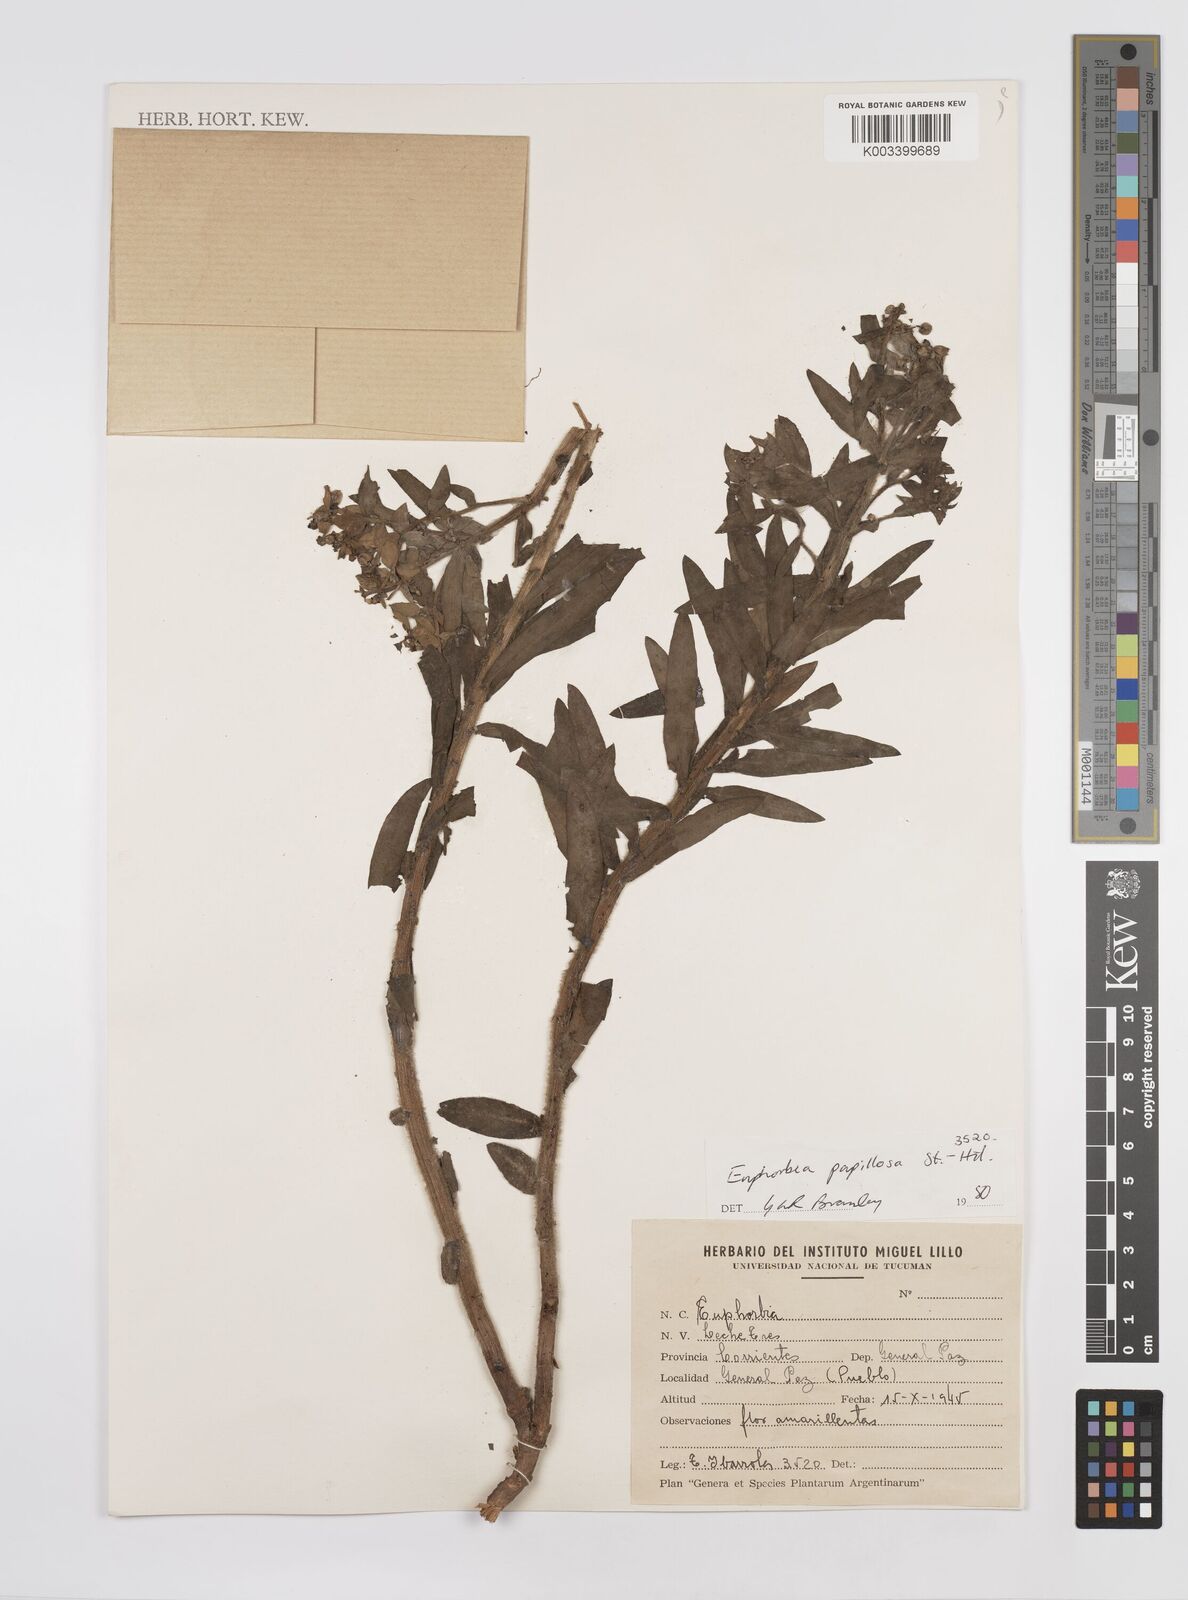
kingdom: Plantae
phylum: Tracheophyta
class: Magnoliopsida
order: Malpighiales
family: Euphorbiaceae
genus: Euphorbia
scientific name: Euphorbia
